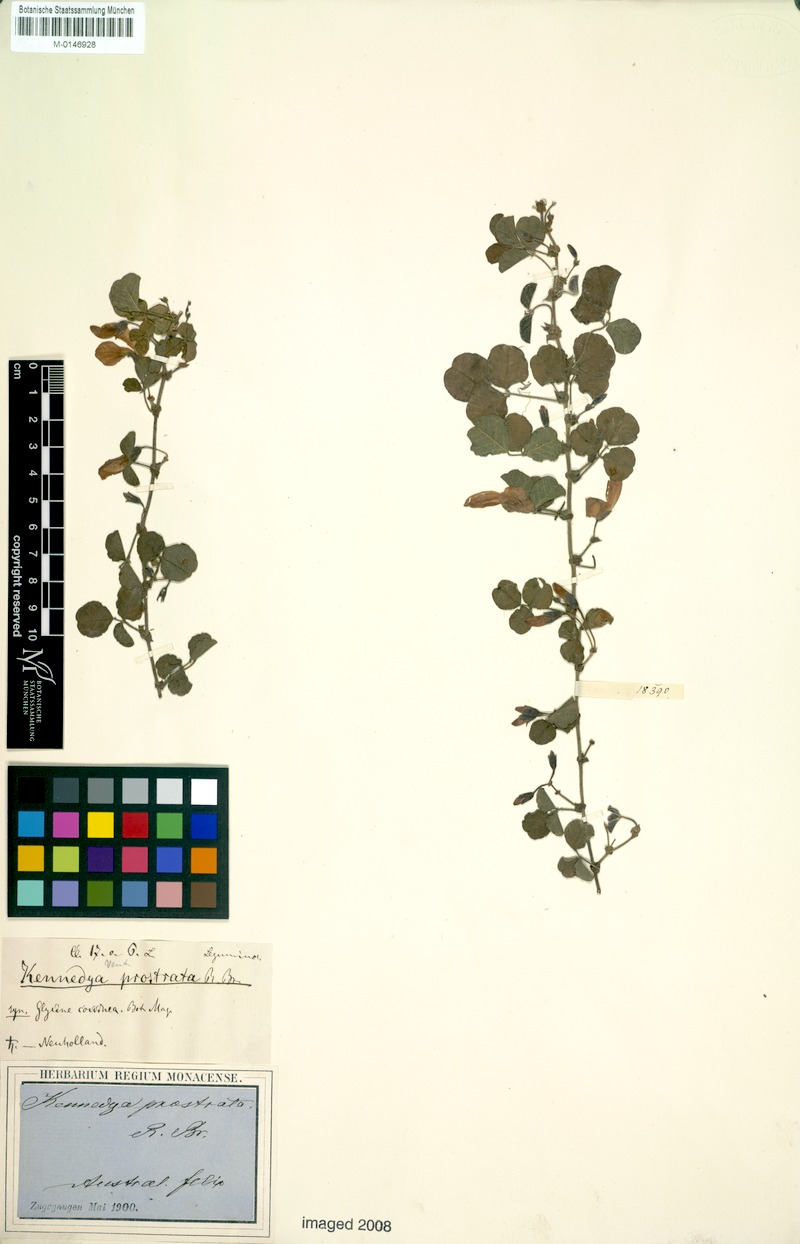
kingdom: Plantae
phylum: Tracheophyta
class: Magnoliopsida
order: Fabales
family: Fabaceae
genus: Kennedia
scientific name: Kennedia prostrata
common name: Running-postman
